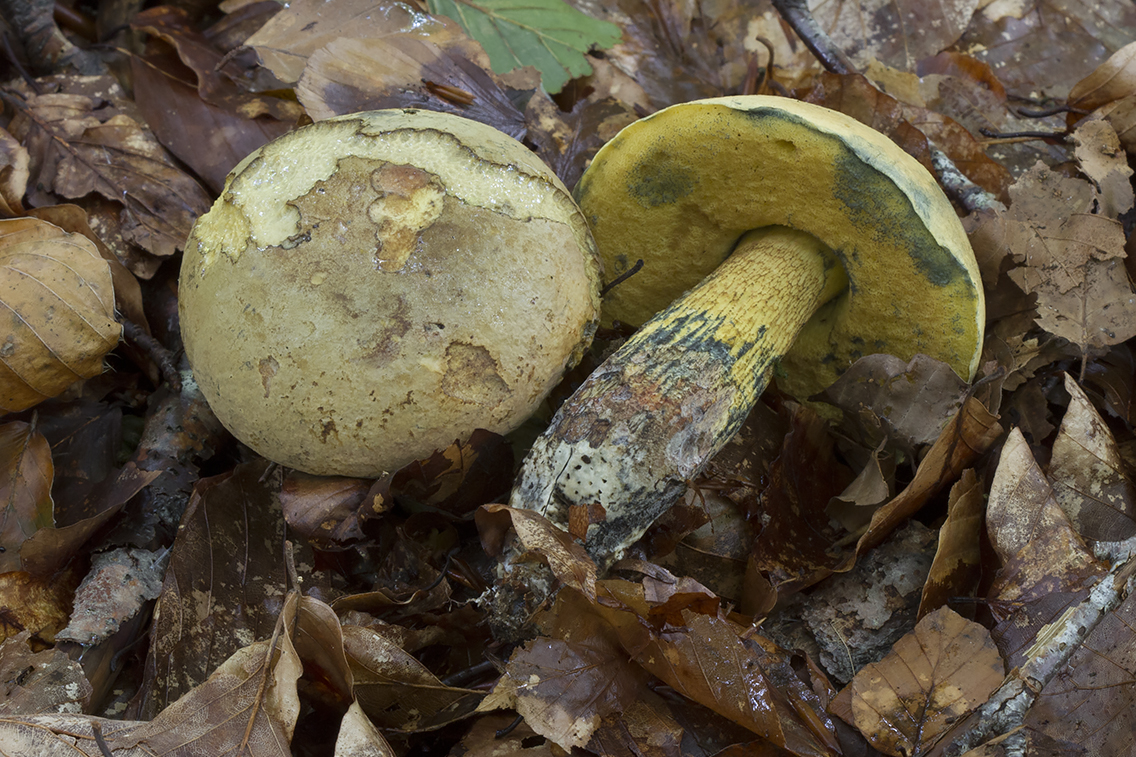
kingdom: Fungi
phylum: Basidiomycota
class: Agaricomycetes
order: Boletales
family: Boletaceae
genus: Suillellus
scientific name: Suillellus luridus
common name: netstokket indigorørhat
